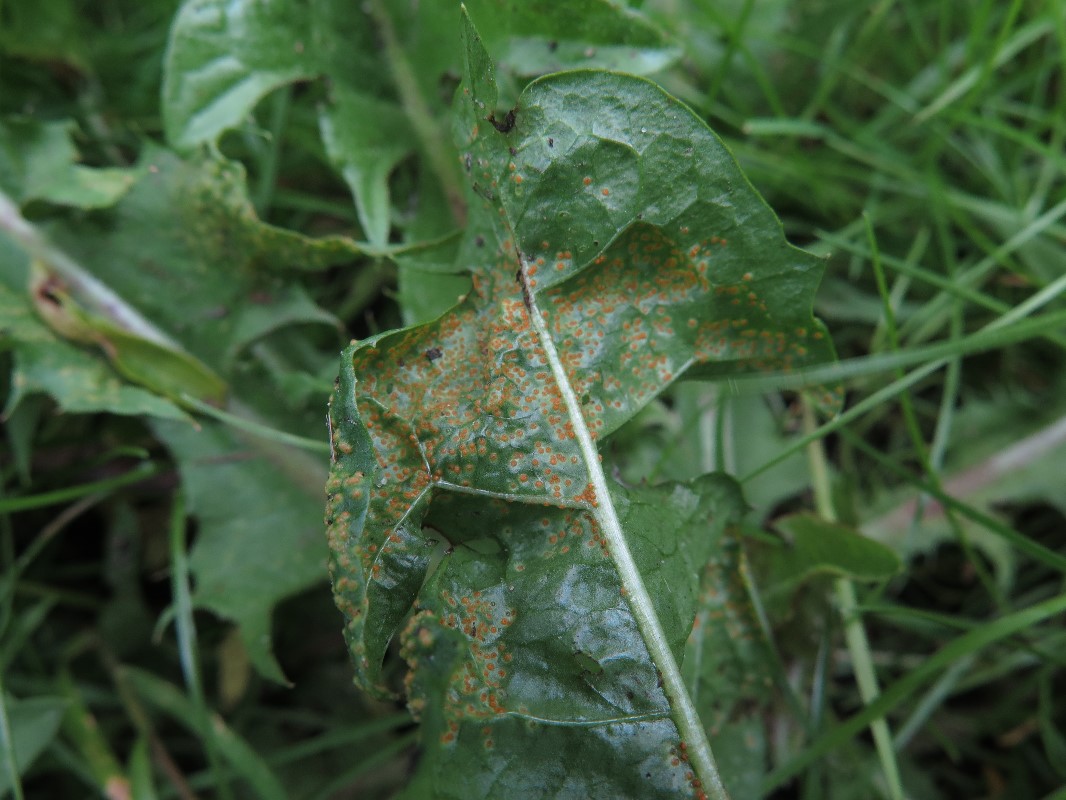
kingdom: Fungi
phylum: Chytridiomycota
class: Chytridiomycetes
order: Chytridiales
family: Synchytriaceae
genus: Synchytrium
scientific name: Synchytrium taraxaci
